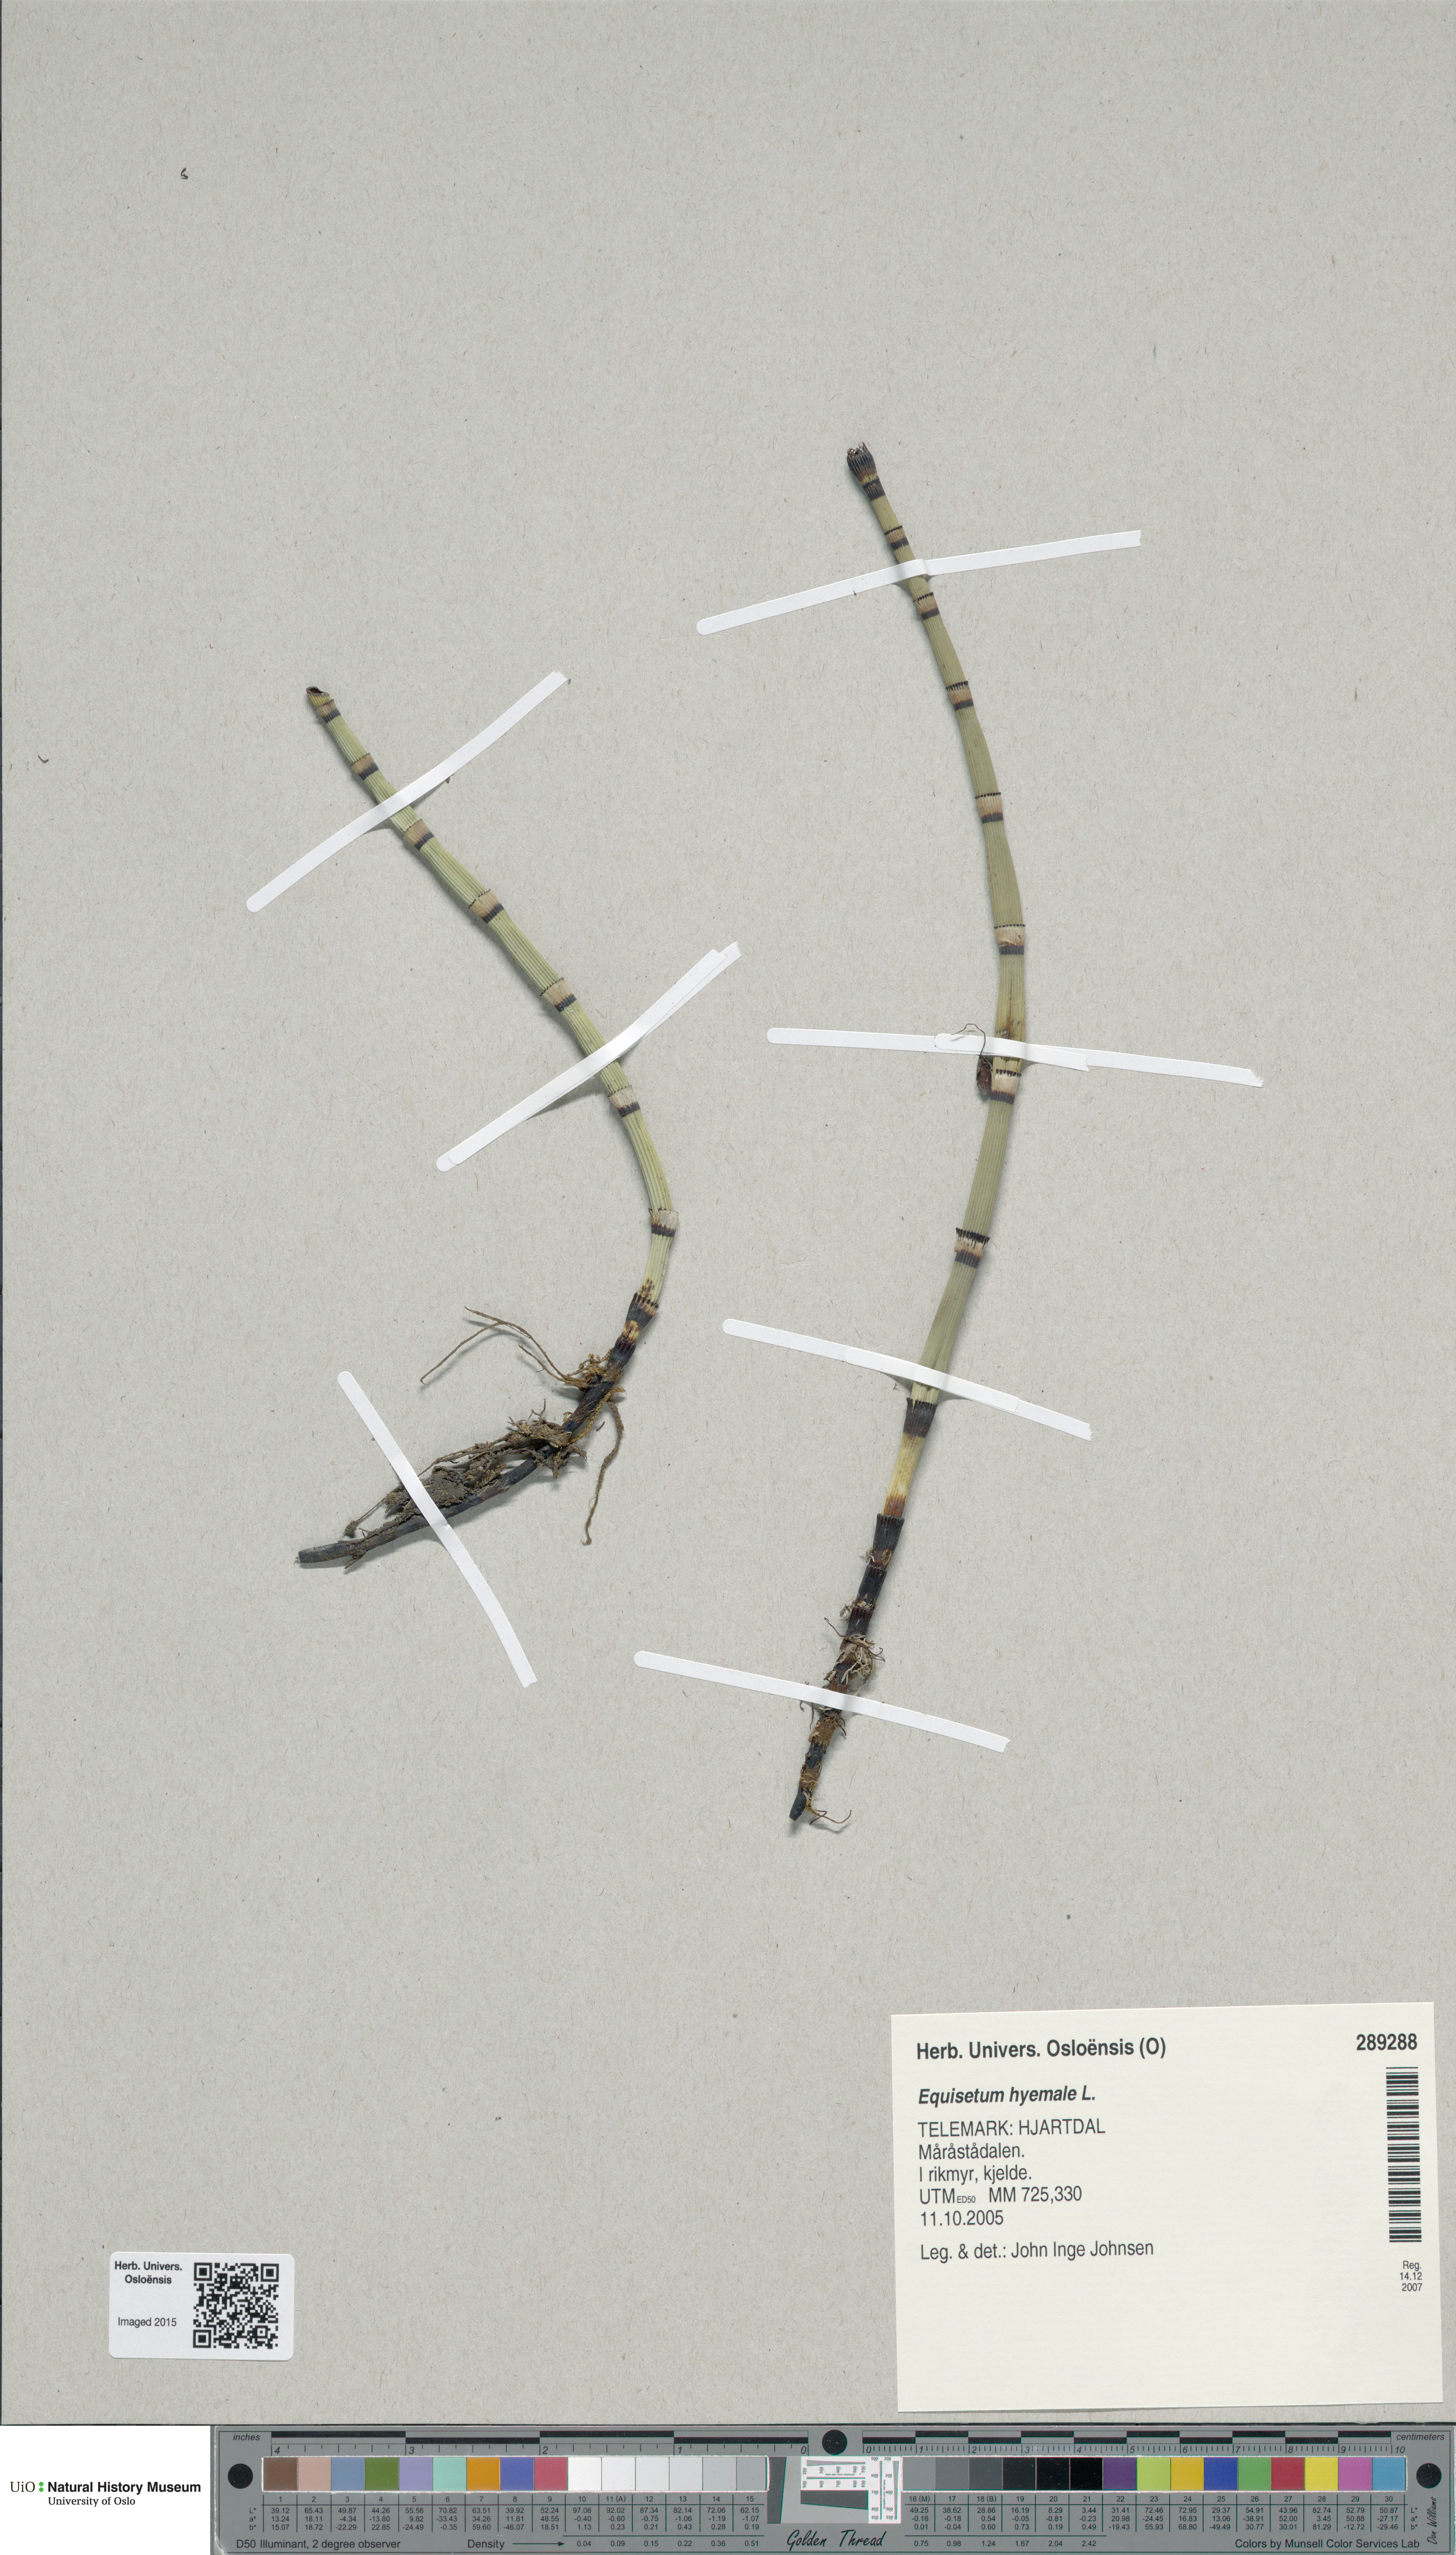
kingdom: Plantae
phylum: Tracheophyta
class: Polypodiopsida
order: Equisetales
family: Equisetaceae
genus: Equisetum
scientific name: Equisetum hyemale
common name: Rough horsetail
